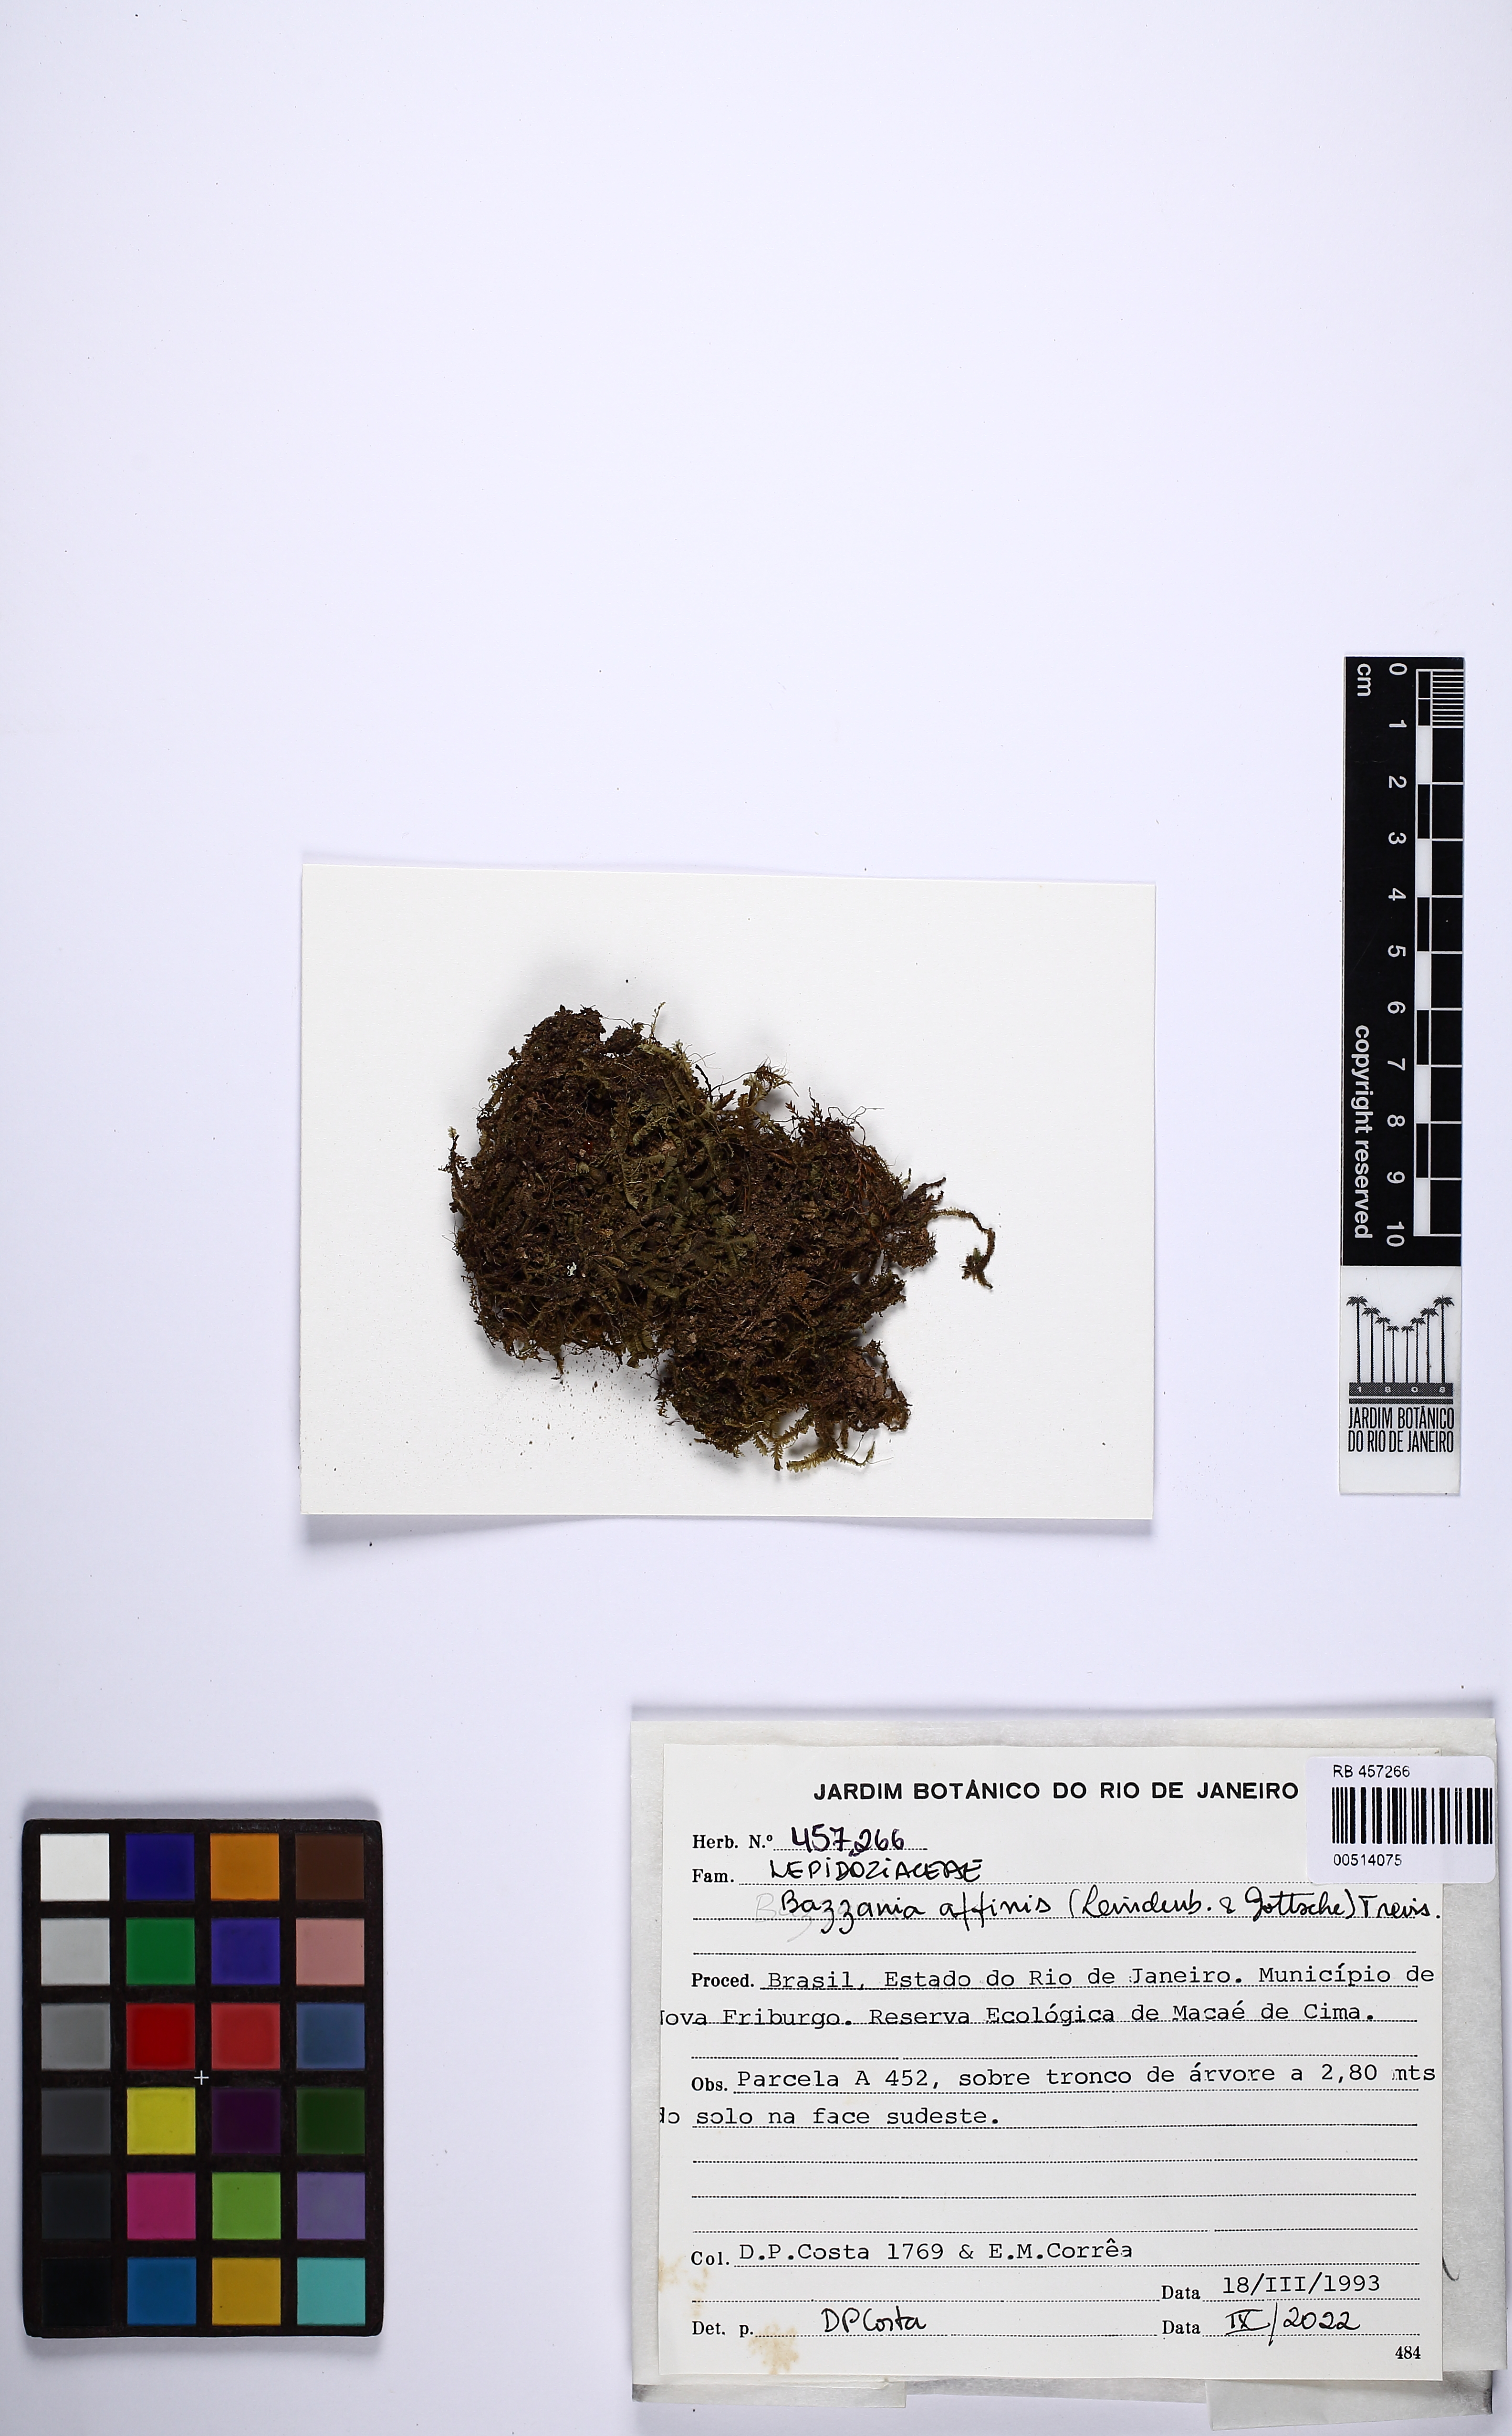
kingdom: Plantae
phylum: Marchantiophyta
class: Jungermanniopsida
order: Jungermanniales
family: Lepidoziaceae
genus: Bazzania
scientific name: Bazzania affinis
